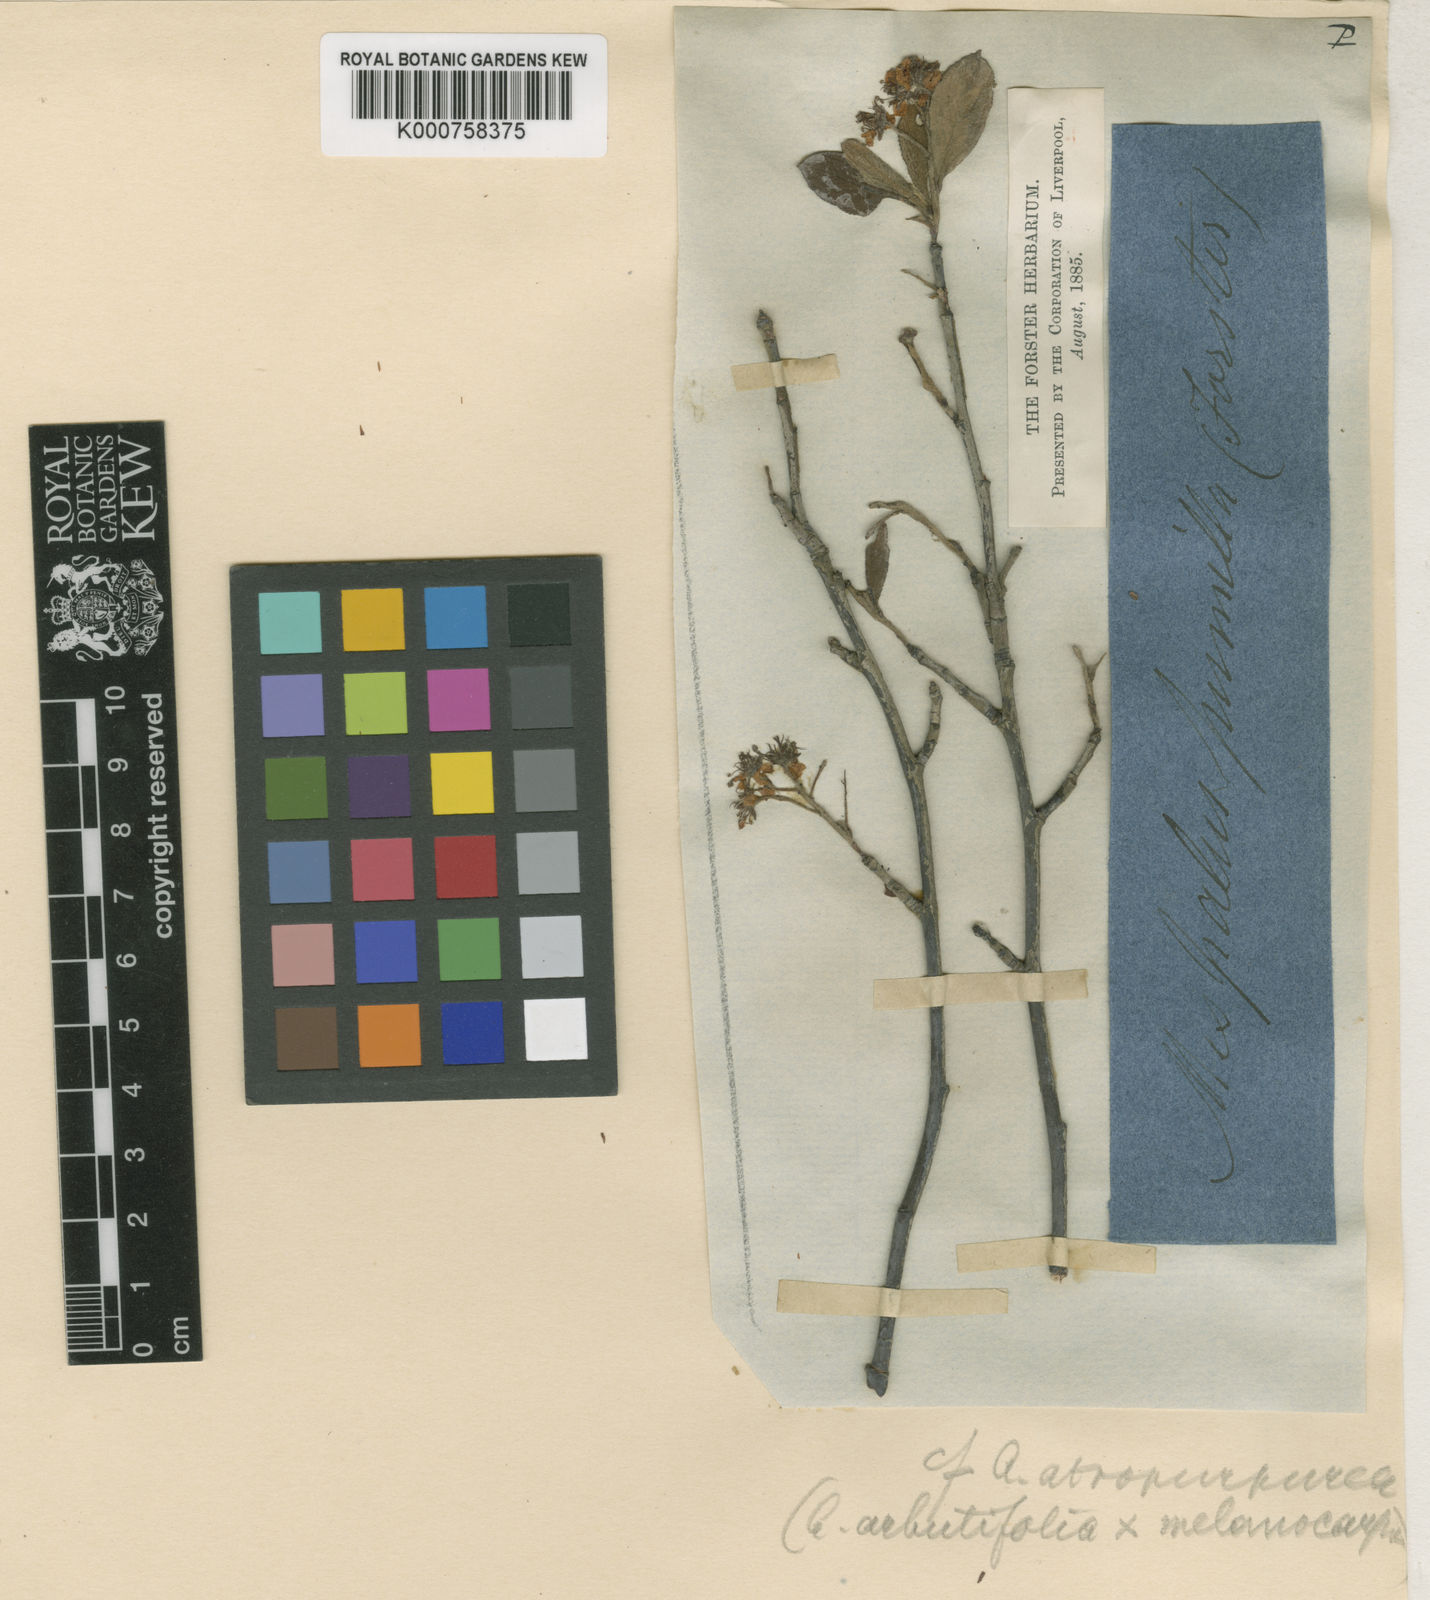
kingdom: Plantae
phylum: Tracheophyta
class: Magnoliopsida
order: Rosales
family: Rosaceae
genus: Heteromeles
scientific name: Heteromeles arbutifolia
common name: California-holly
